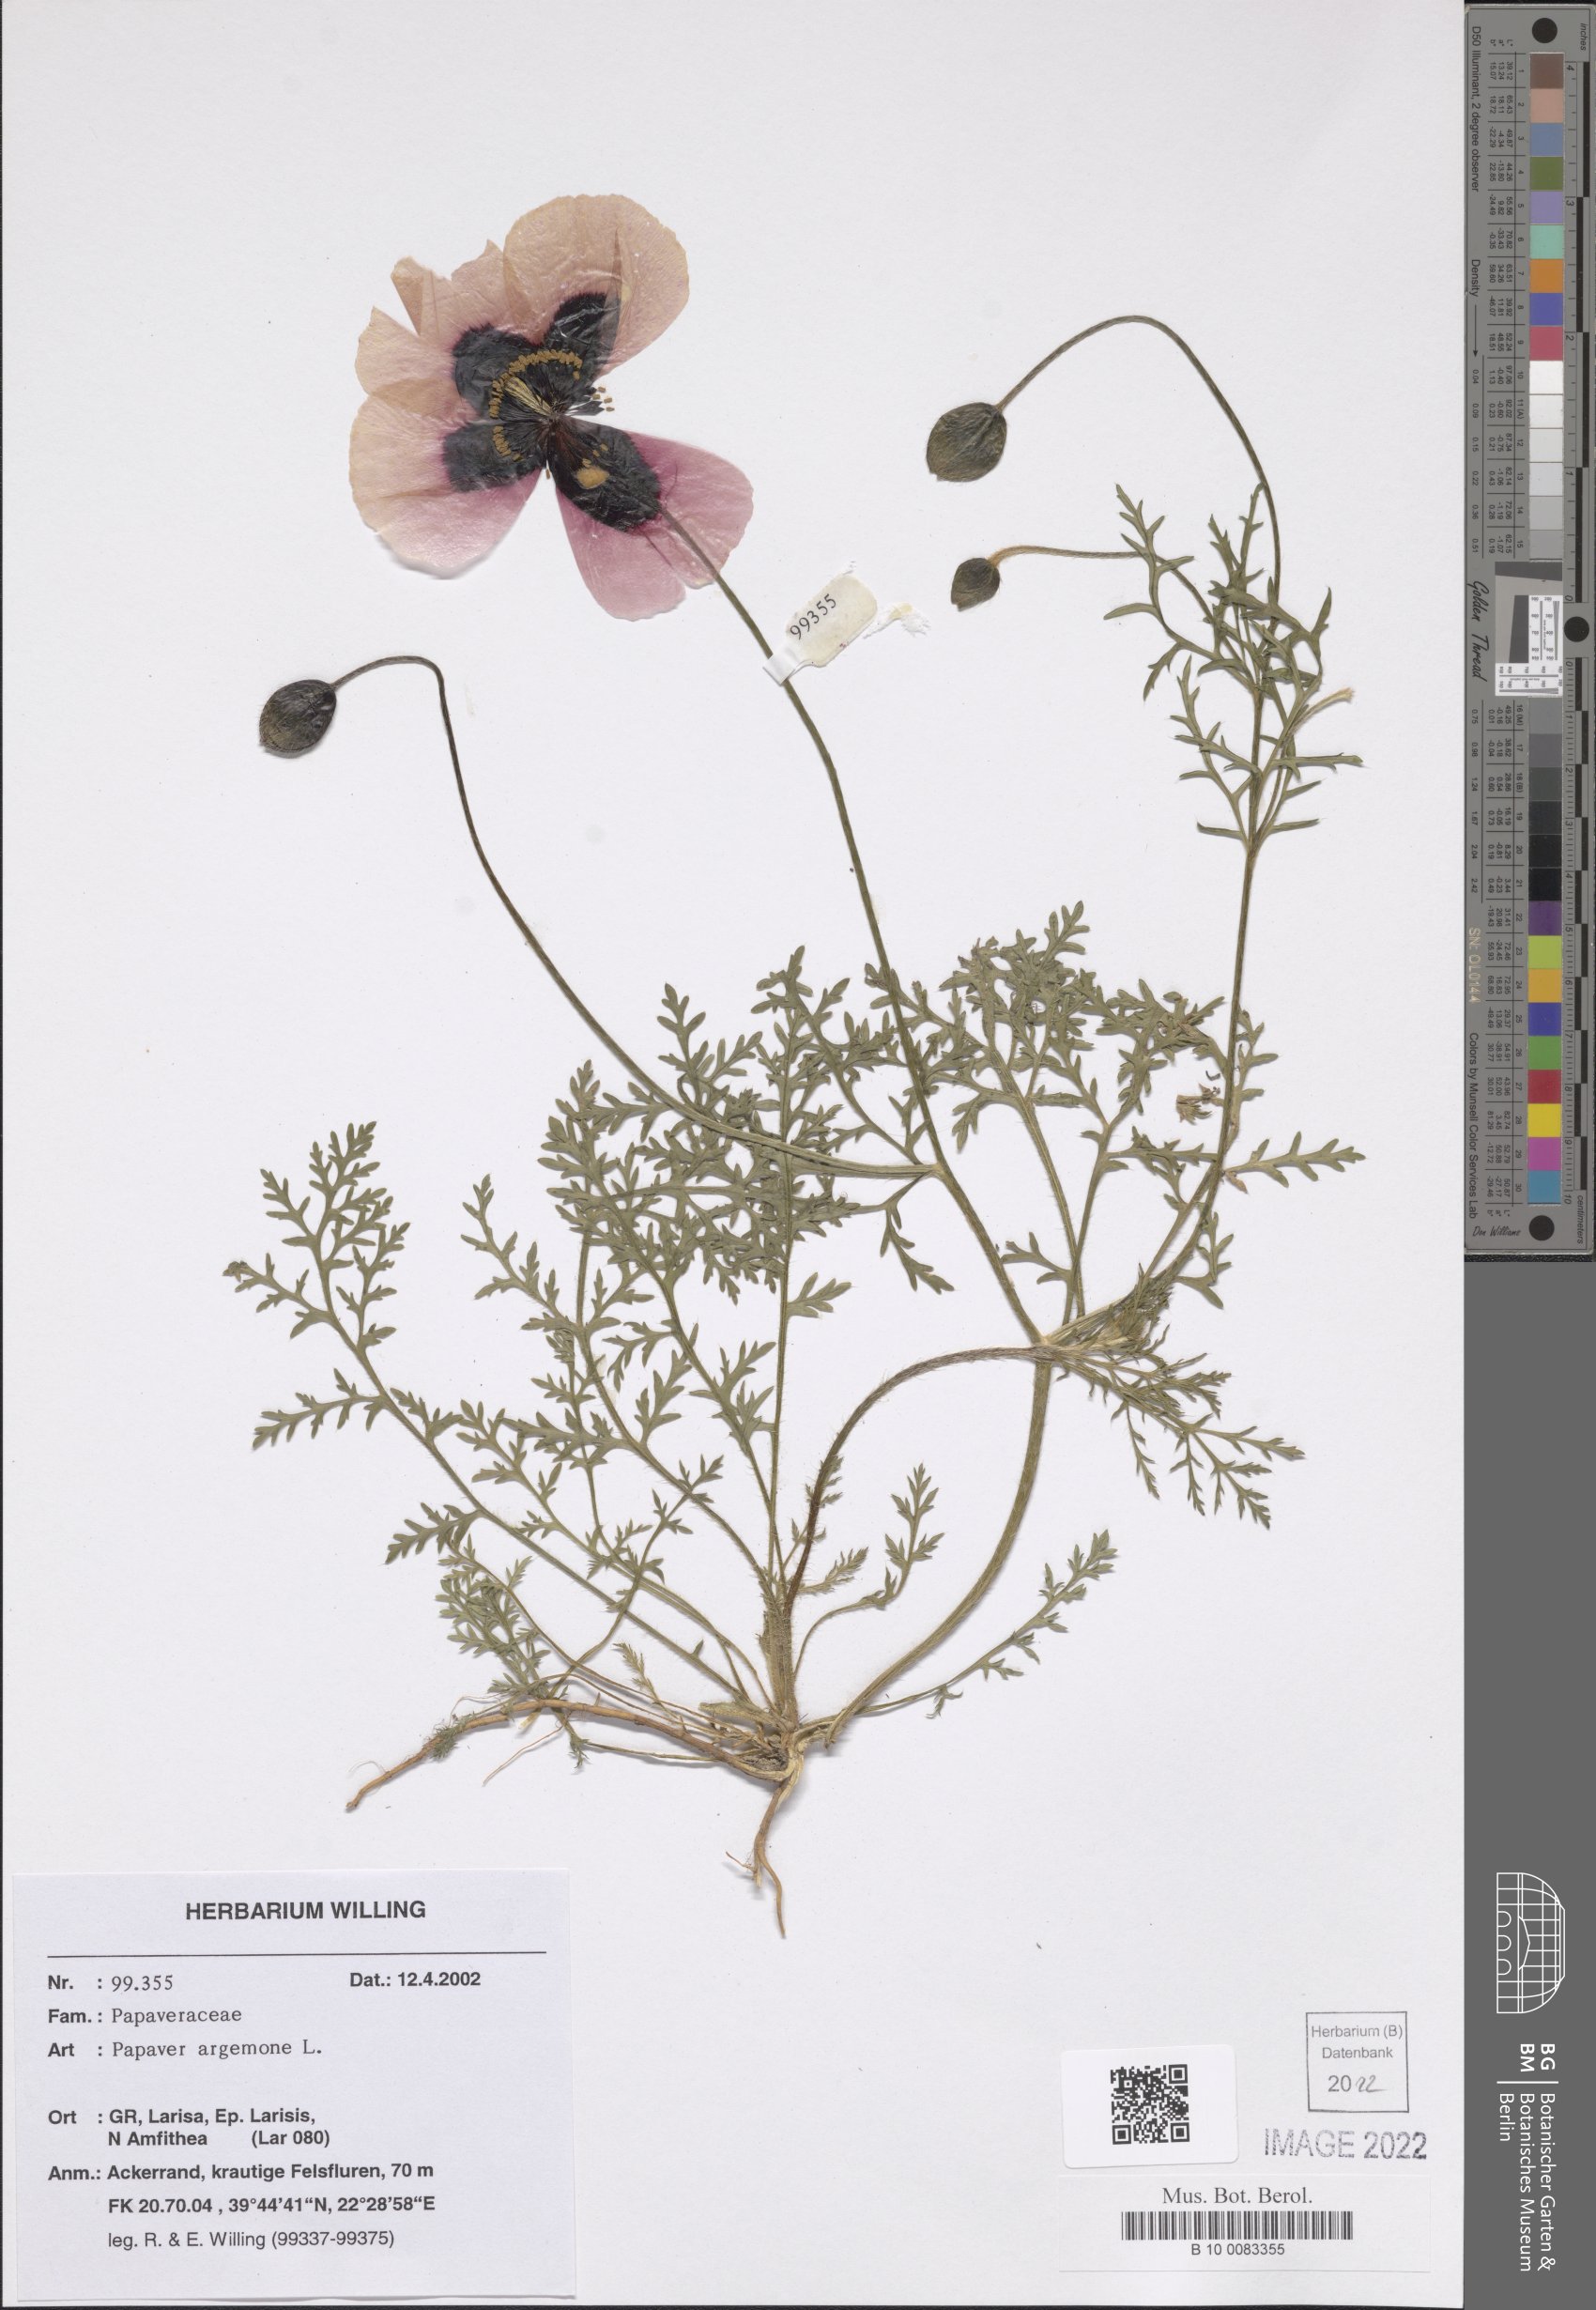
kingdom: Plantae
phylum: Tracheophyta
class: Magnoliopsida
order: Ranunculales
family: Papaveraceae
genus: Roemeria
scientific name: Roemeria argemone
